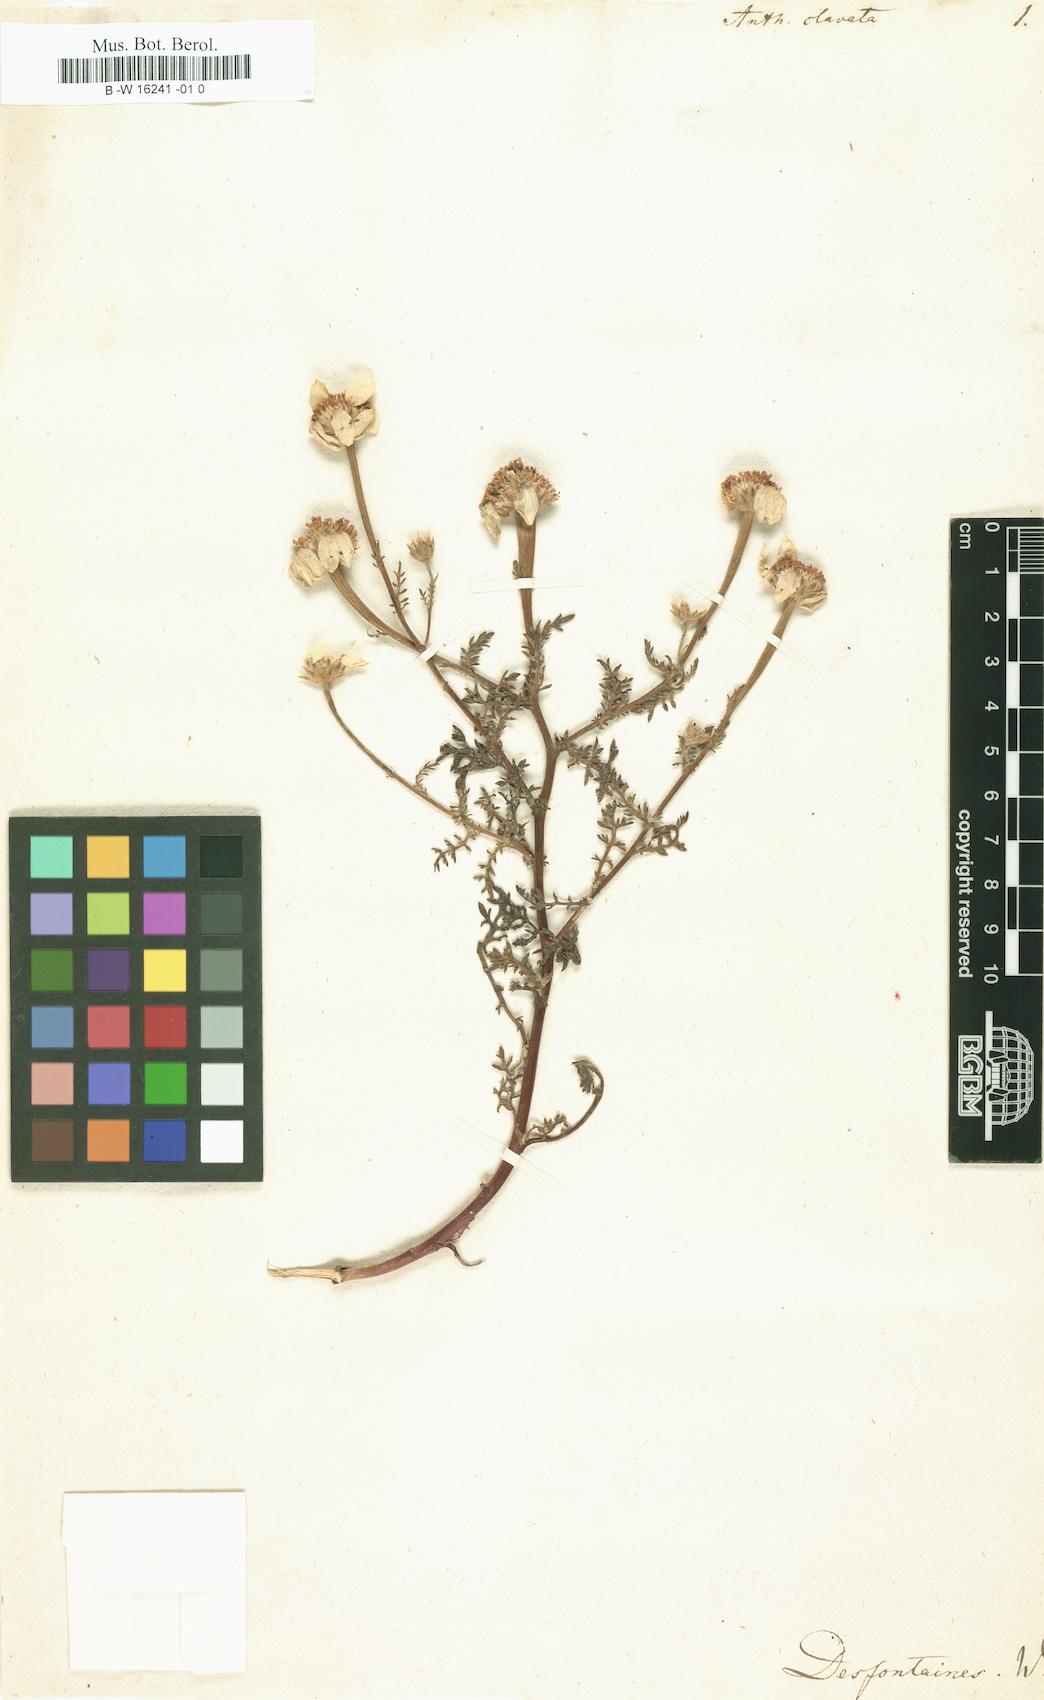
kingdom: Plantae
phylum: Tracheophyta
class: Magnoliopsida
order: Asterales
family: Asteraceae
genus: Anacyclus
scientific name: Anacyclus clavatus
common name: Whitebuttons
